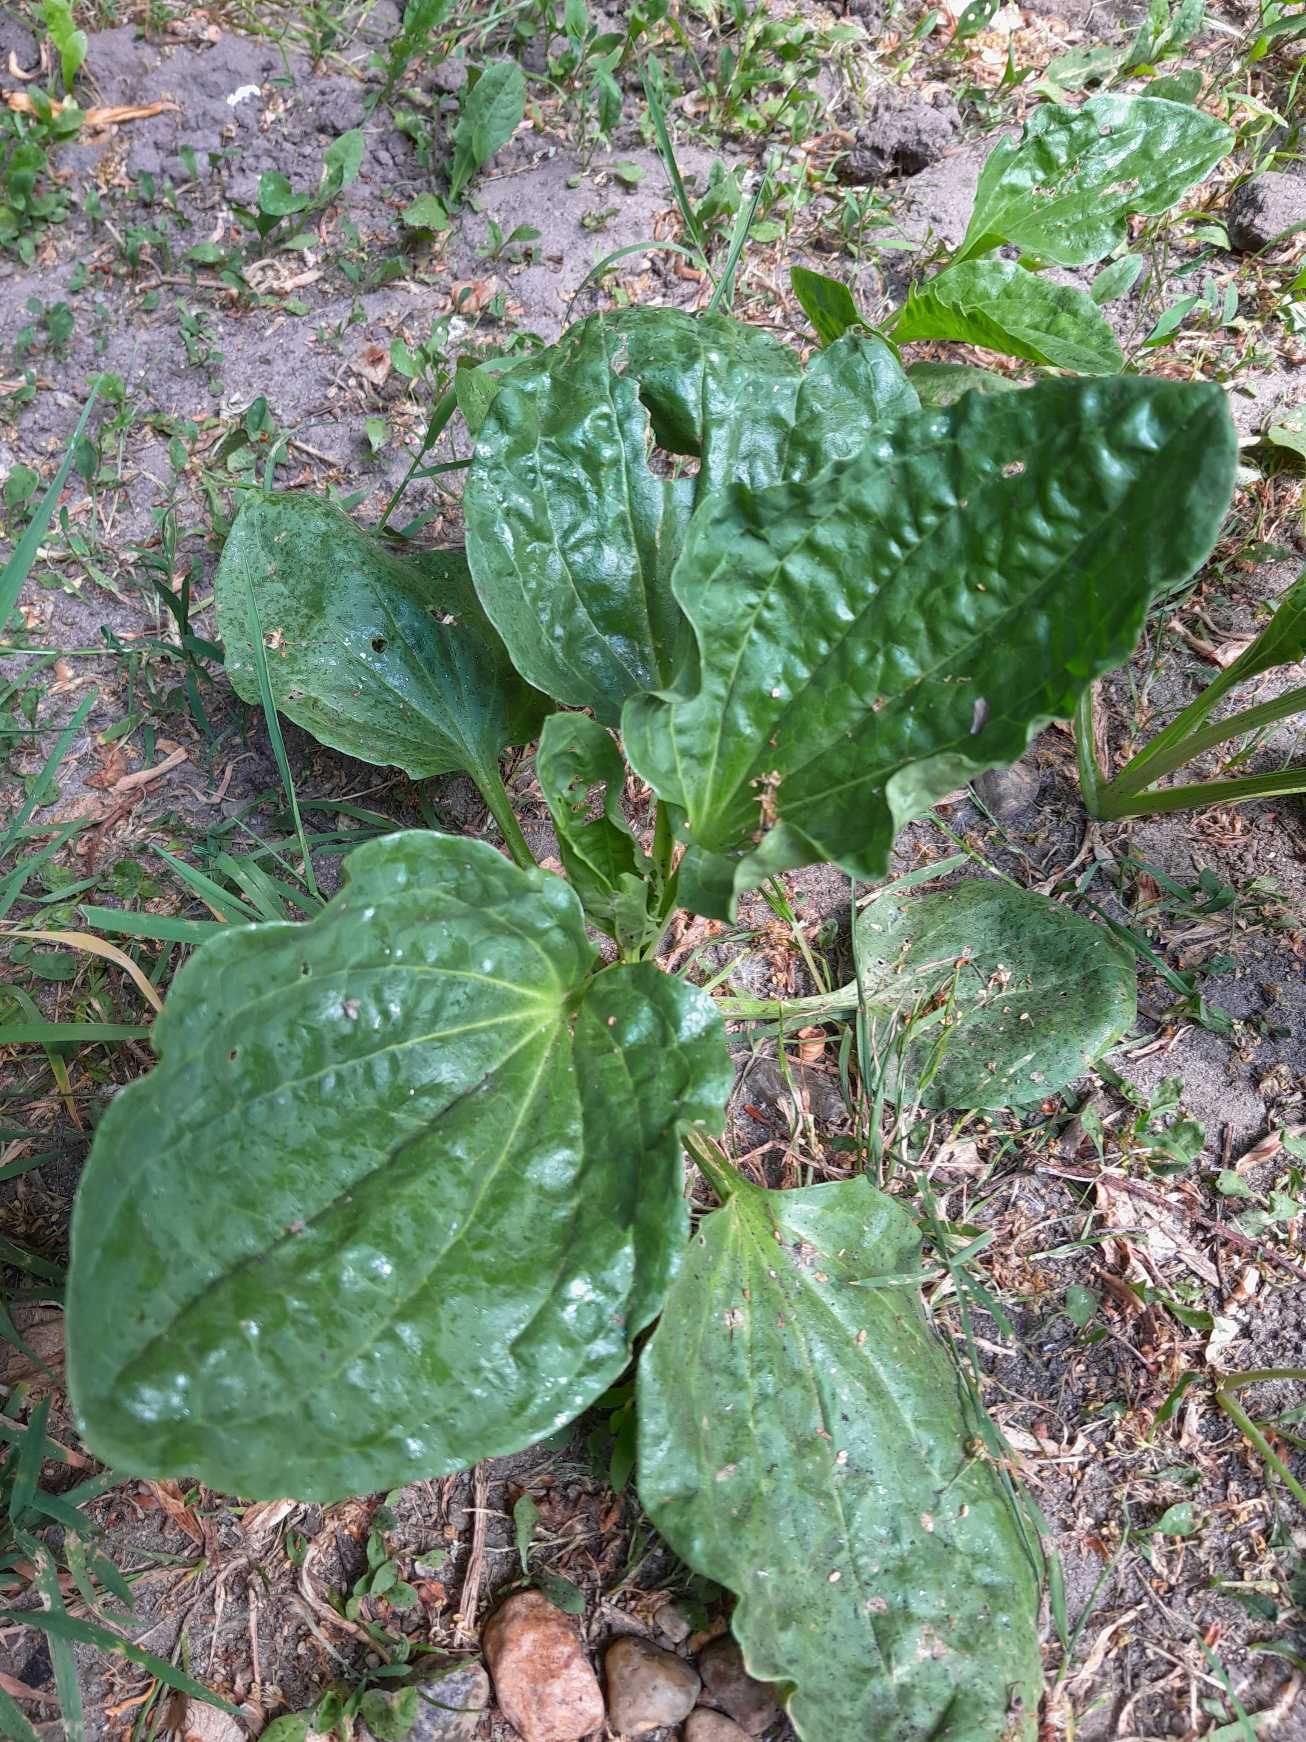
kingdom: Plantae
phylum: Tracheophyta
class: Magnoliopsida
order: Lamiales
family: Plantaginaceae
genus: Plantago
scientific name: Plantago major
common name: Glat vejbred
